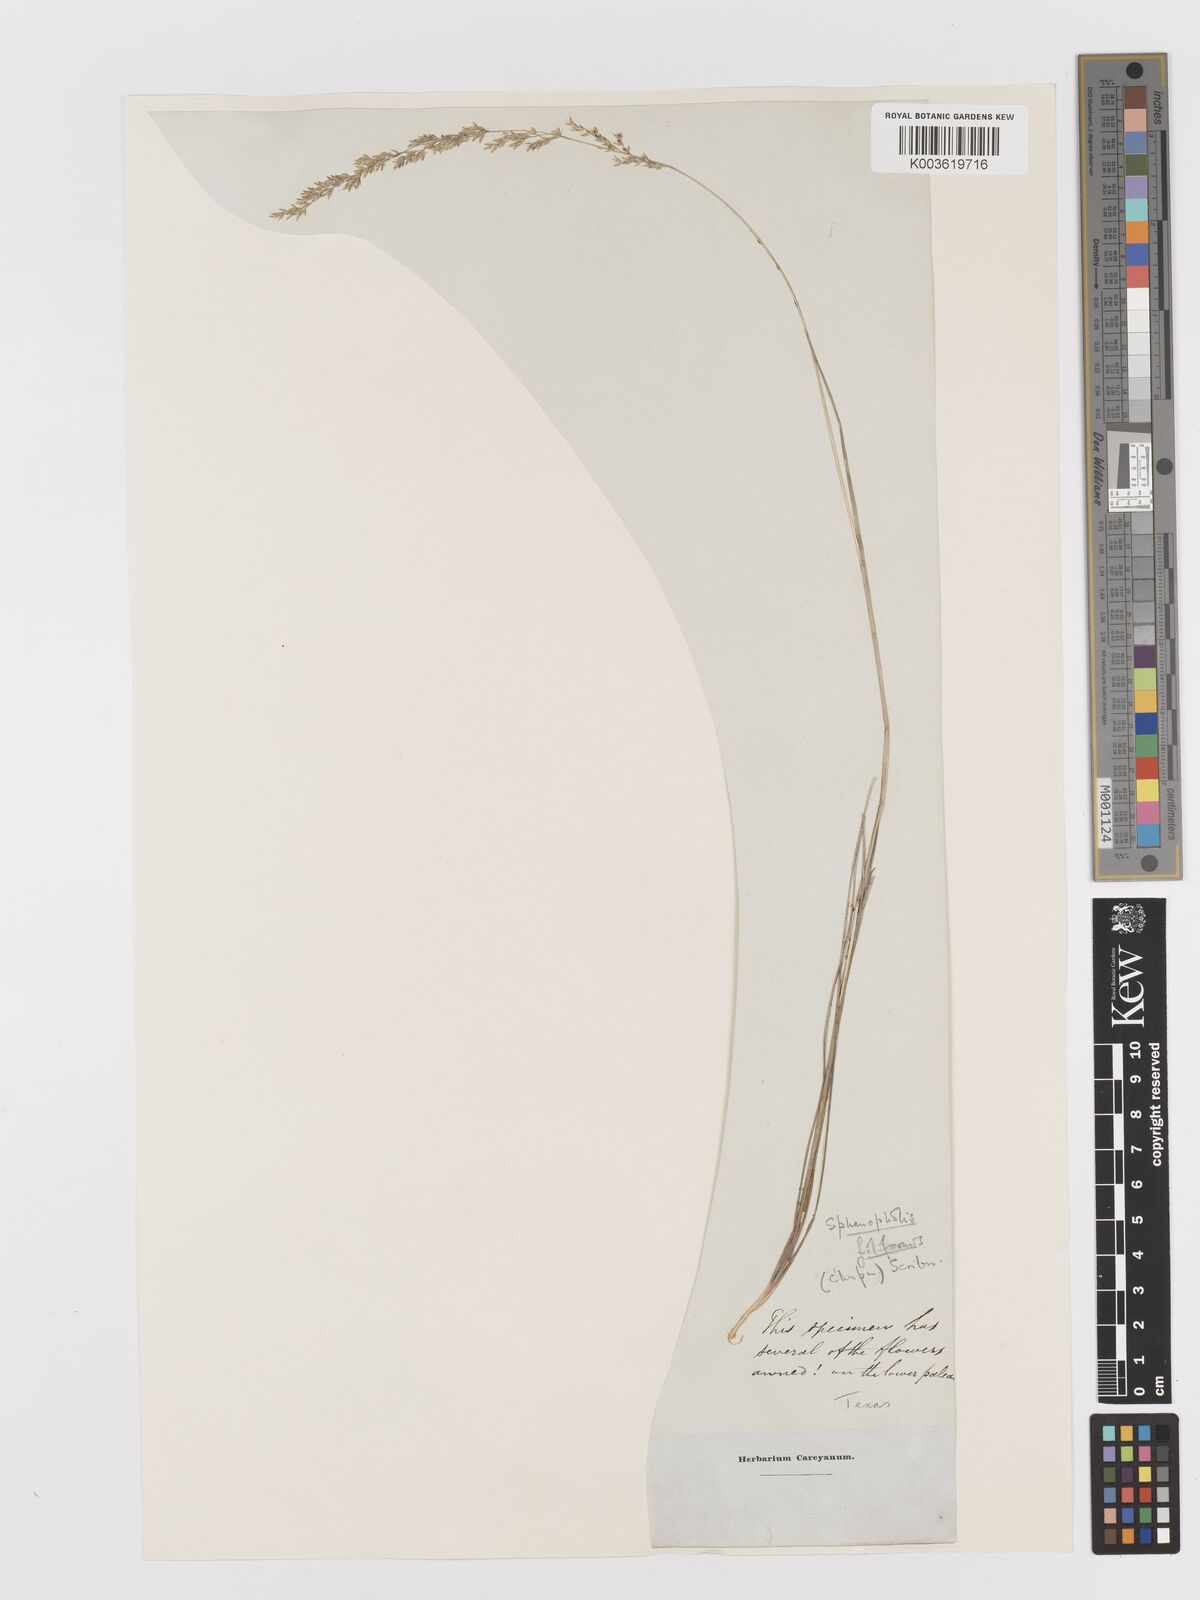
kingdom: Plantae
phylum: Tracheophyta
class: Liliopsida
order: Poales
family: Poaceae
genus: Sphenopholis
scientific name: Sphenopholis filiformis
